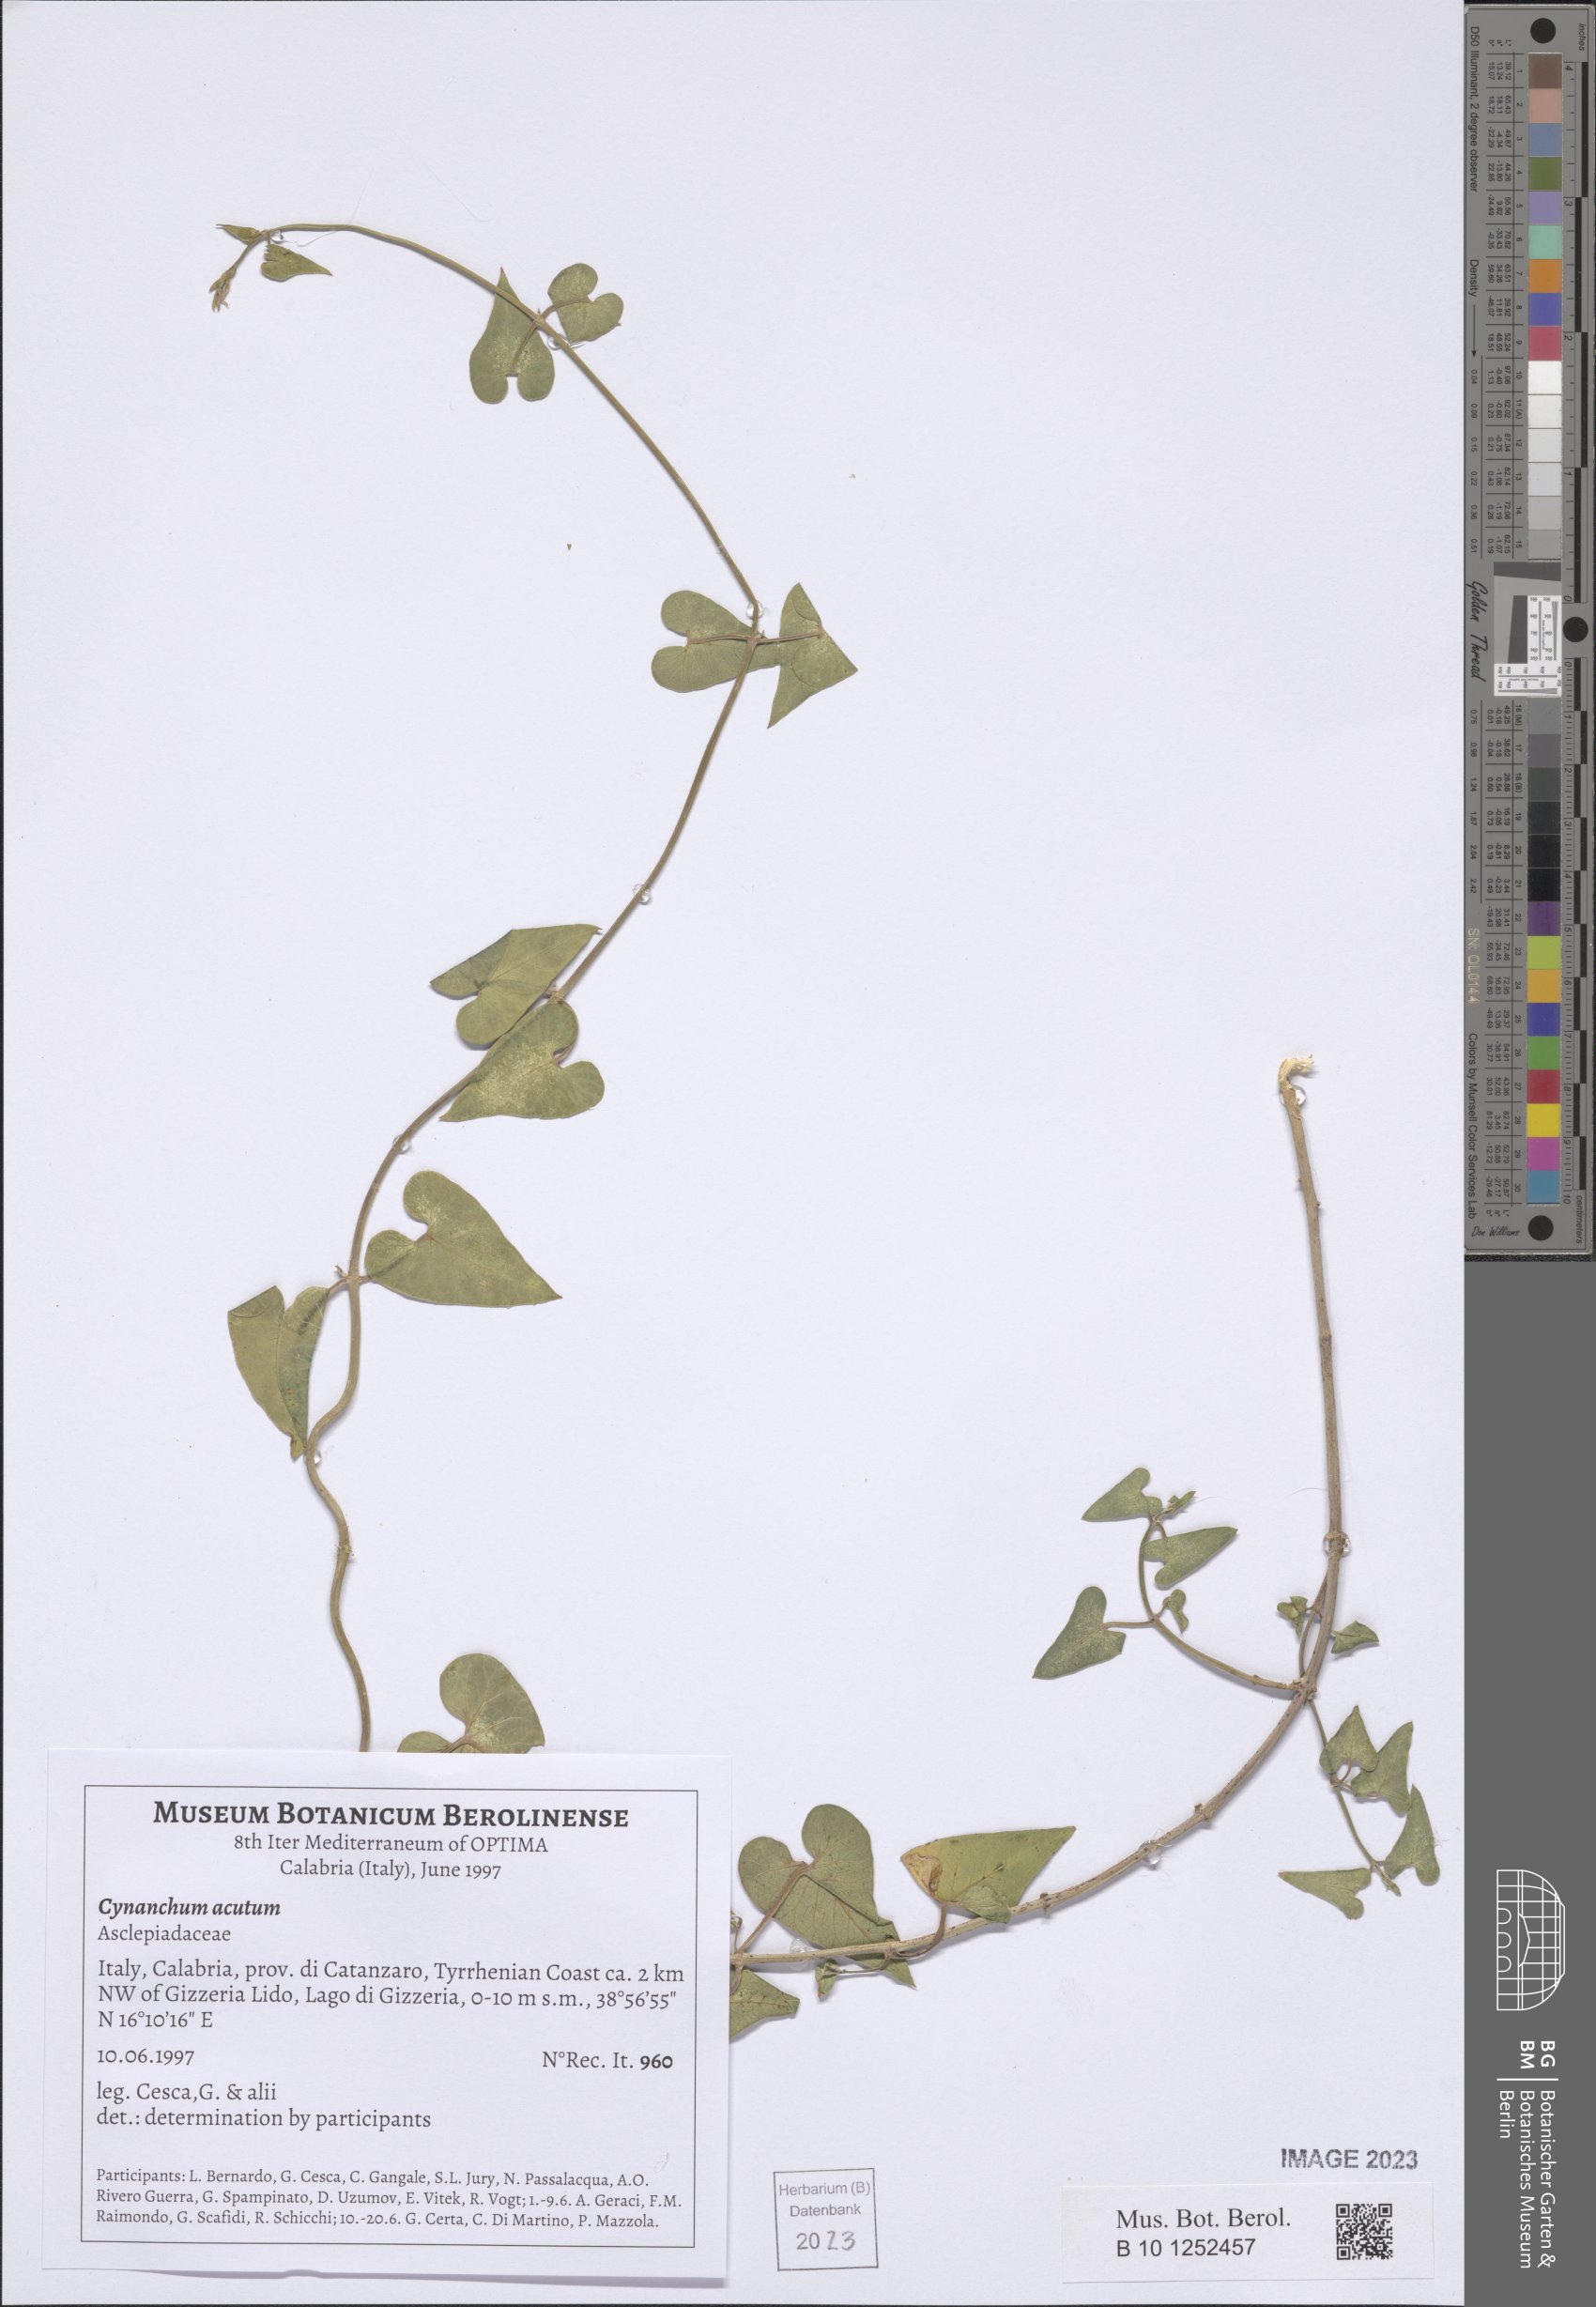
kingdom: Plantae
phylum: Tracheophyta
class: Magnoliopsida
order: Gentianales
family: Apocynaceae
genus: Cynanchum
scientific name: Cynanchum acutum
